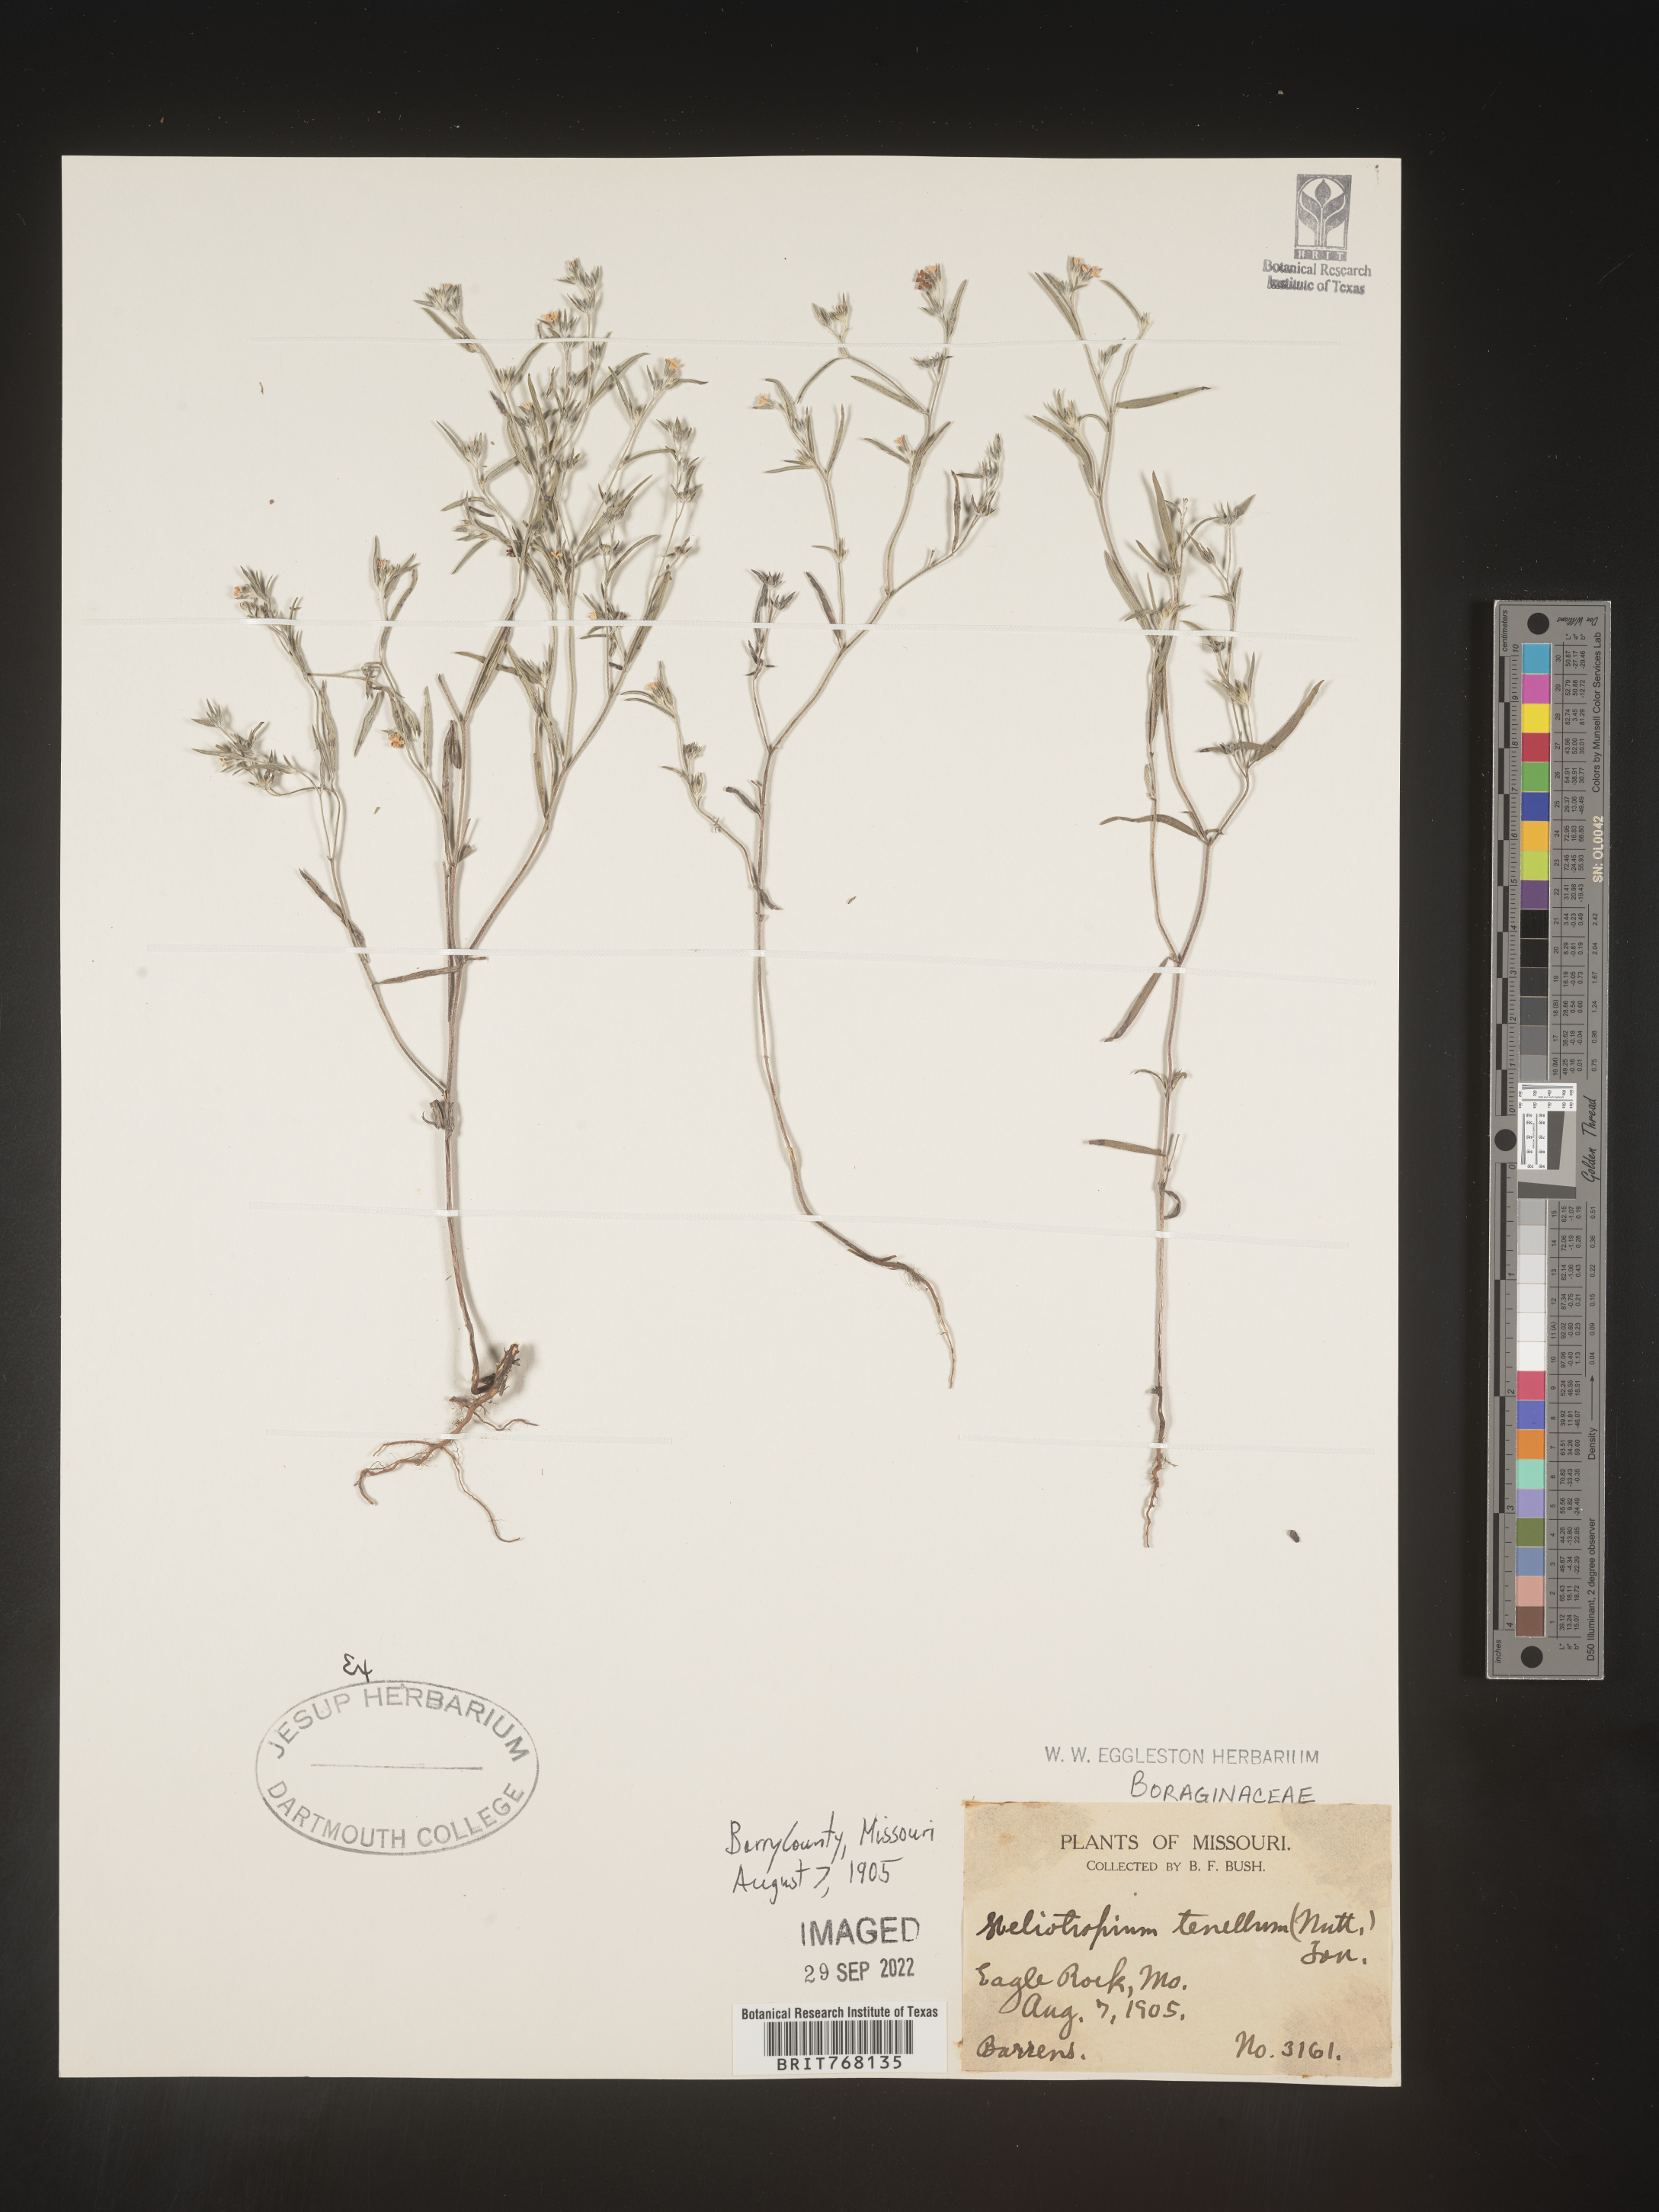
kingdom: Plantae
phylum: Tracheophyta
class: Magnoliopsida
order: Boraginales
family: Heliotropiaceae
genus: Euploca
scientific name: Euploca tenella
